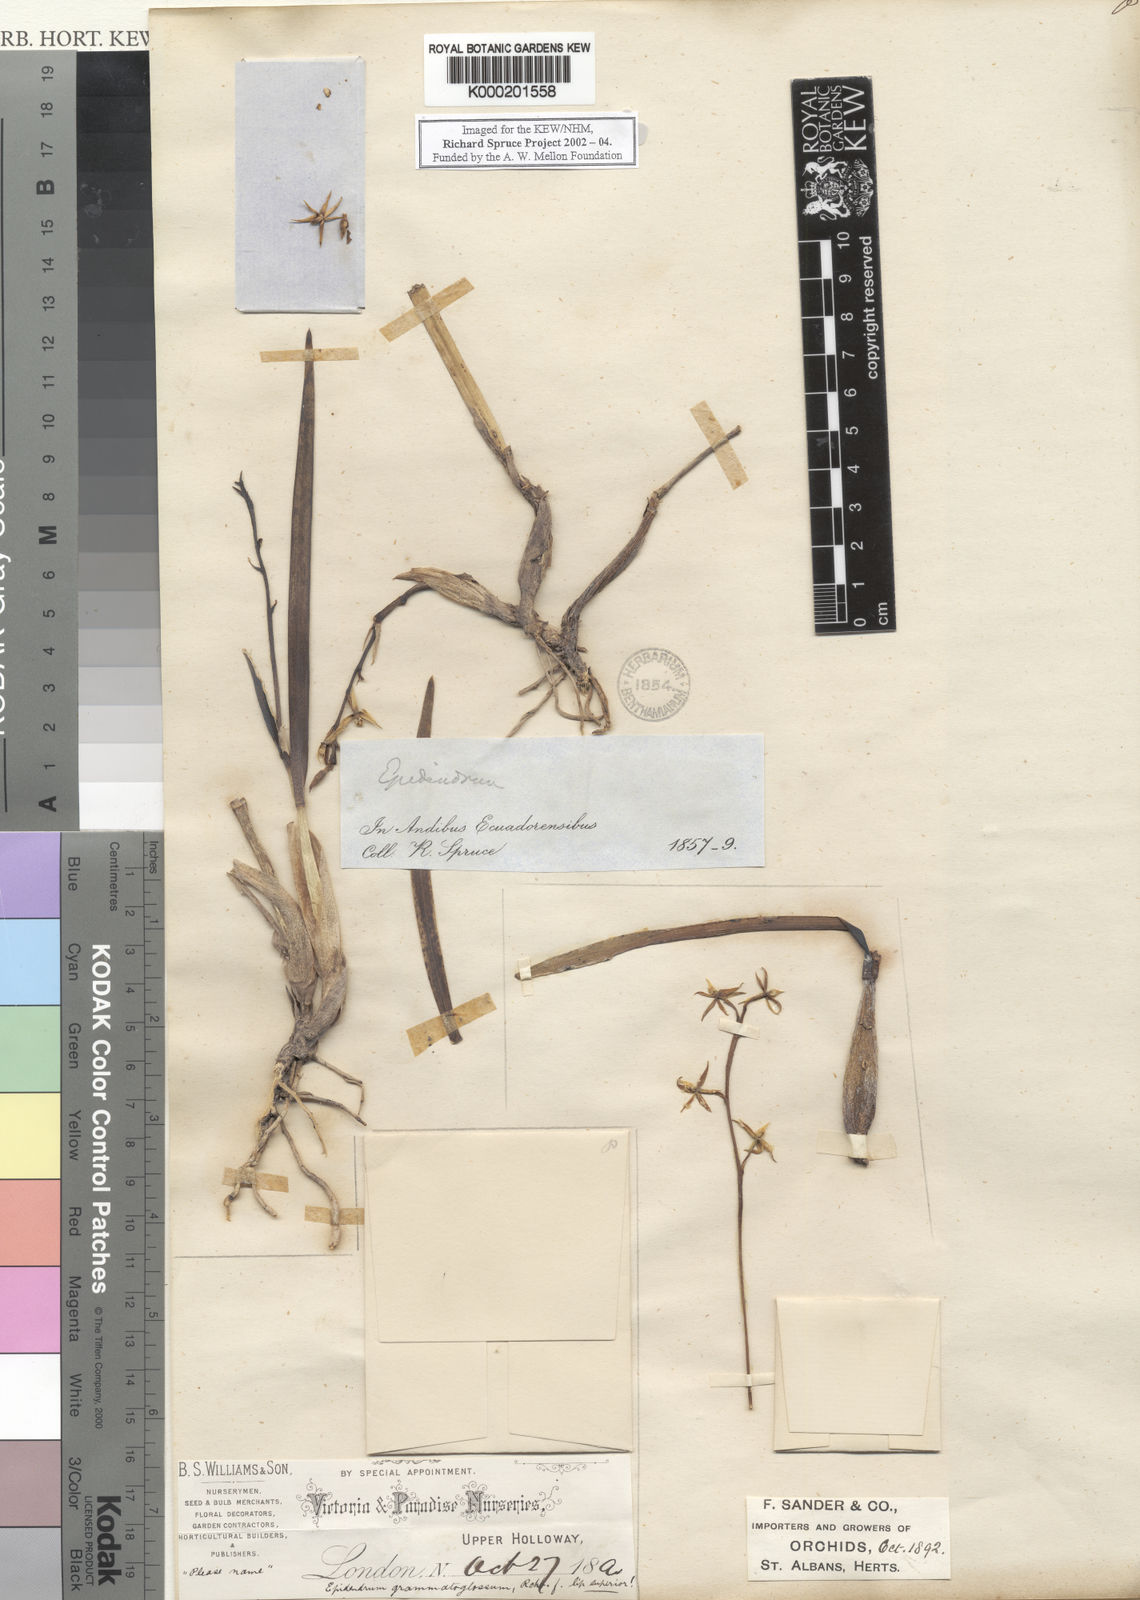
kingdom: Plantae
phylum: Tracheophyta
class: Liliopsida
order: Asparagales
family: Orchidaceae
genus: Prosthechea
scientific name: Prosthechea grammatoglossa
